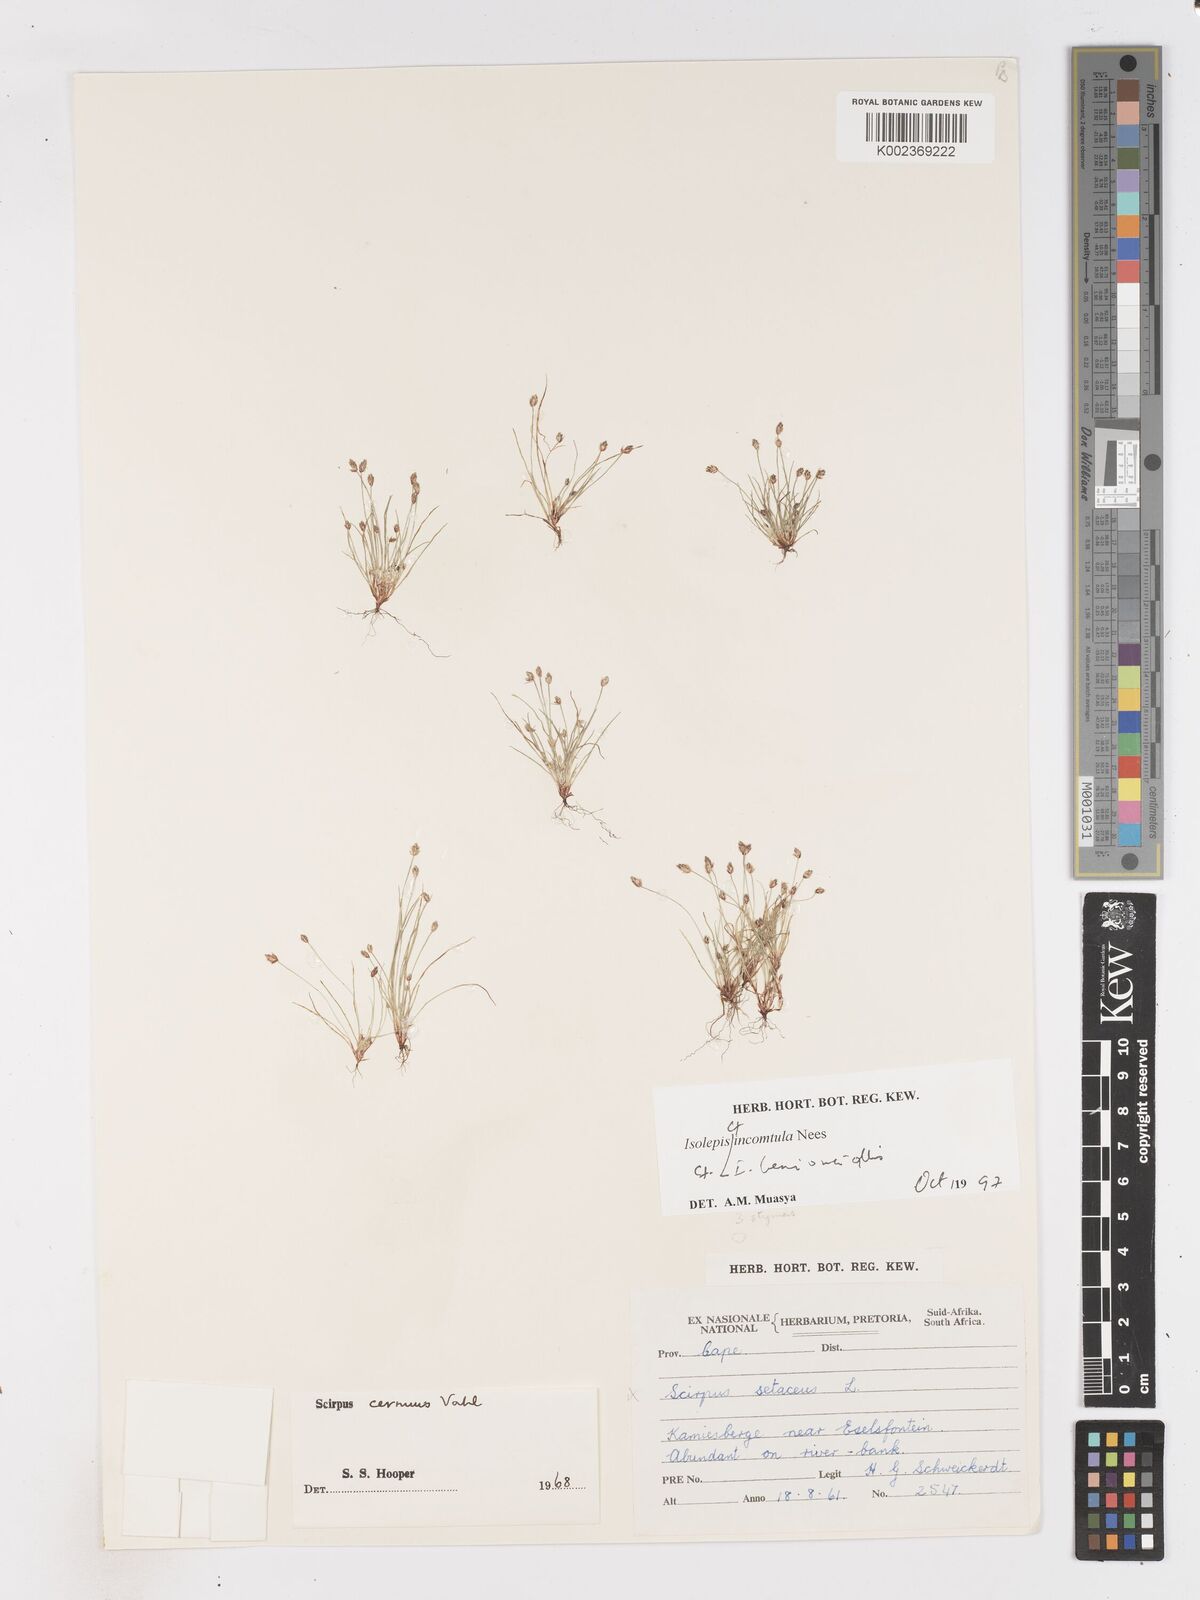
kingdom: Plantae
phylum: Tracheophyta
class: Liliopsida
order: Poales
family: Cyperaceae
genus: Ficinia
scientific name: Ficinia hemiuncialis
